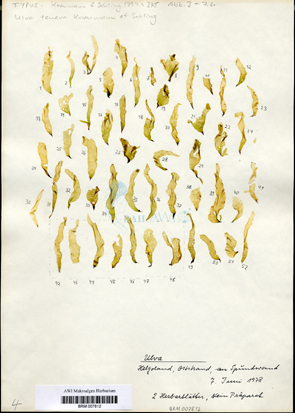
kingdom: Plantae
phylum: Chlorophyta
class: Ulvophyceae
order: Ulvales
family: Ulvaceae
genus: Ulva
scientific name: Ulva tenera
